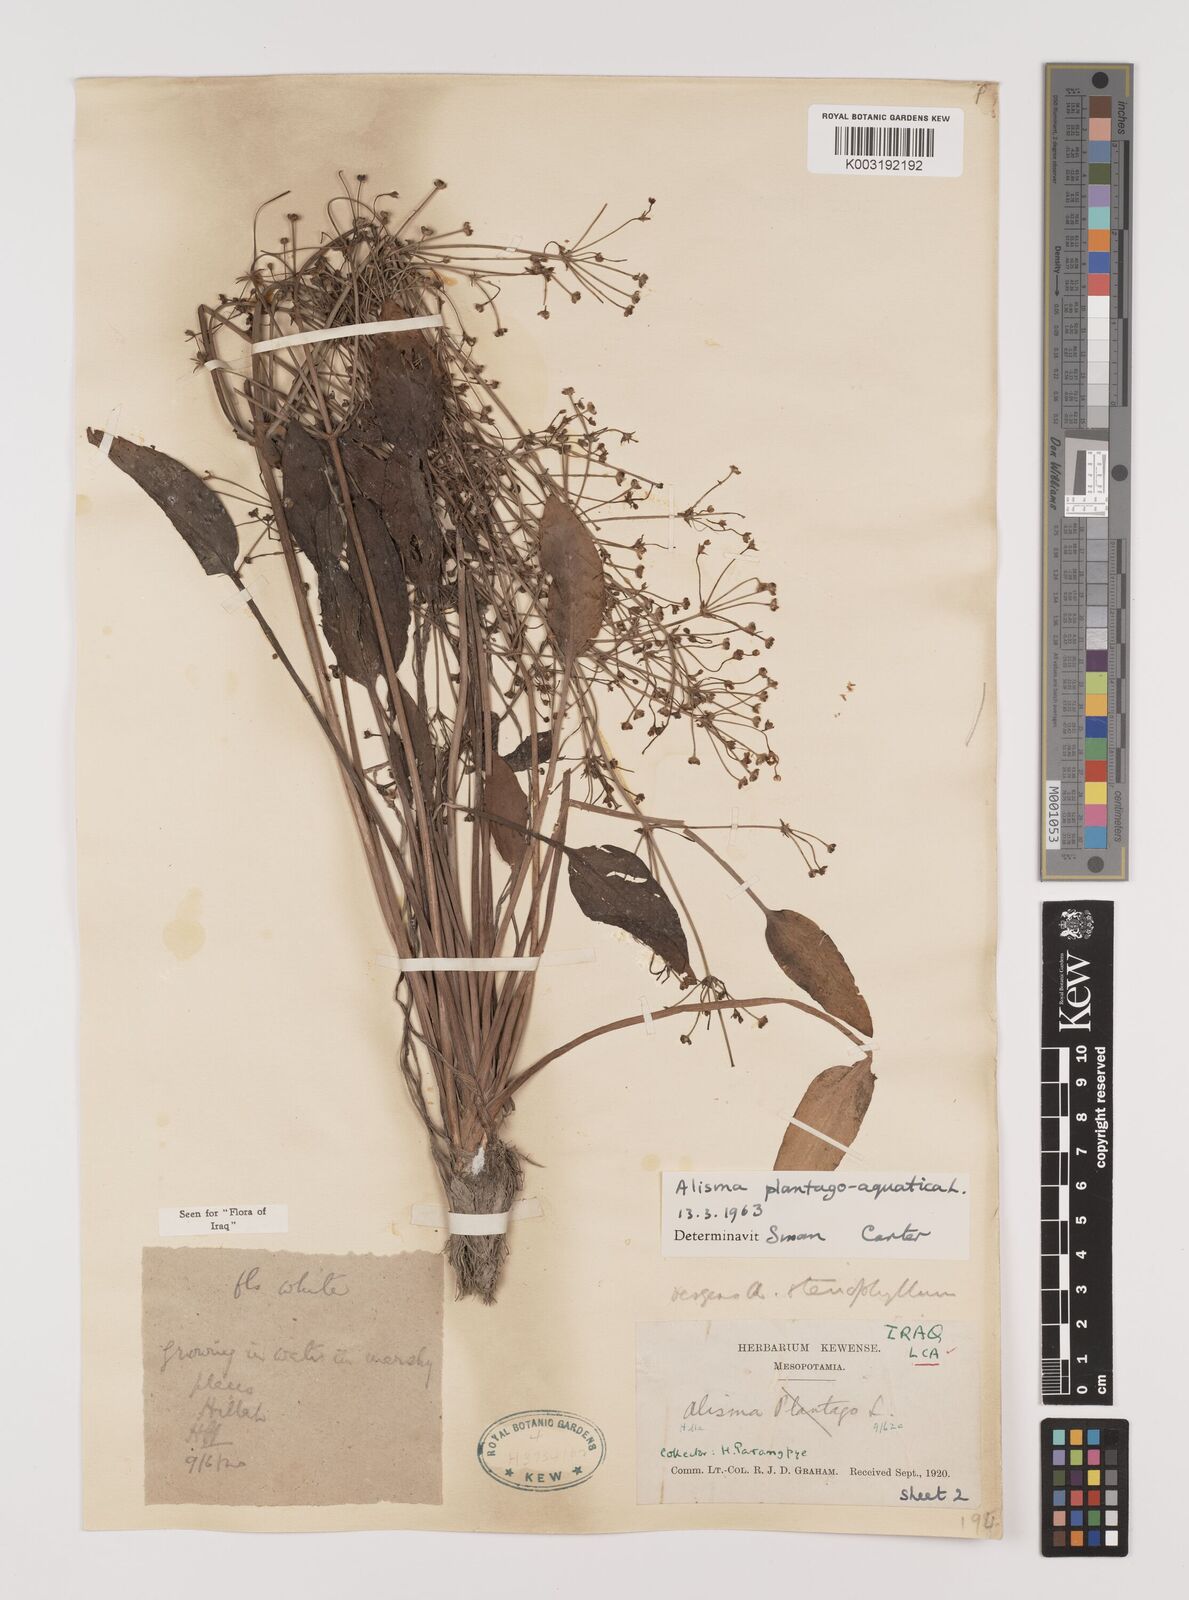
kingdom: Plantae
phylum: Tracheophyta
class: Liliopsida
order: Alismatales
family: Alismataceae
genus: Alisma
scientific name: Alisma plantago-aquatica
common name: Water-plantain
